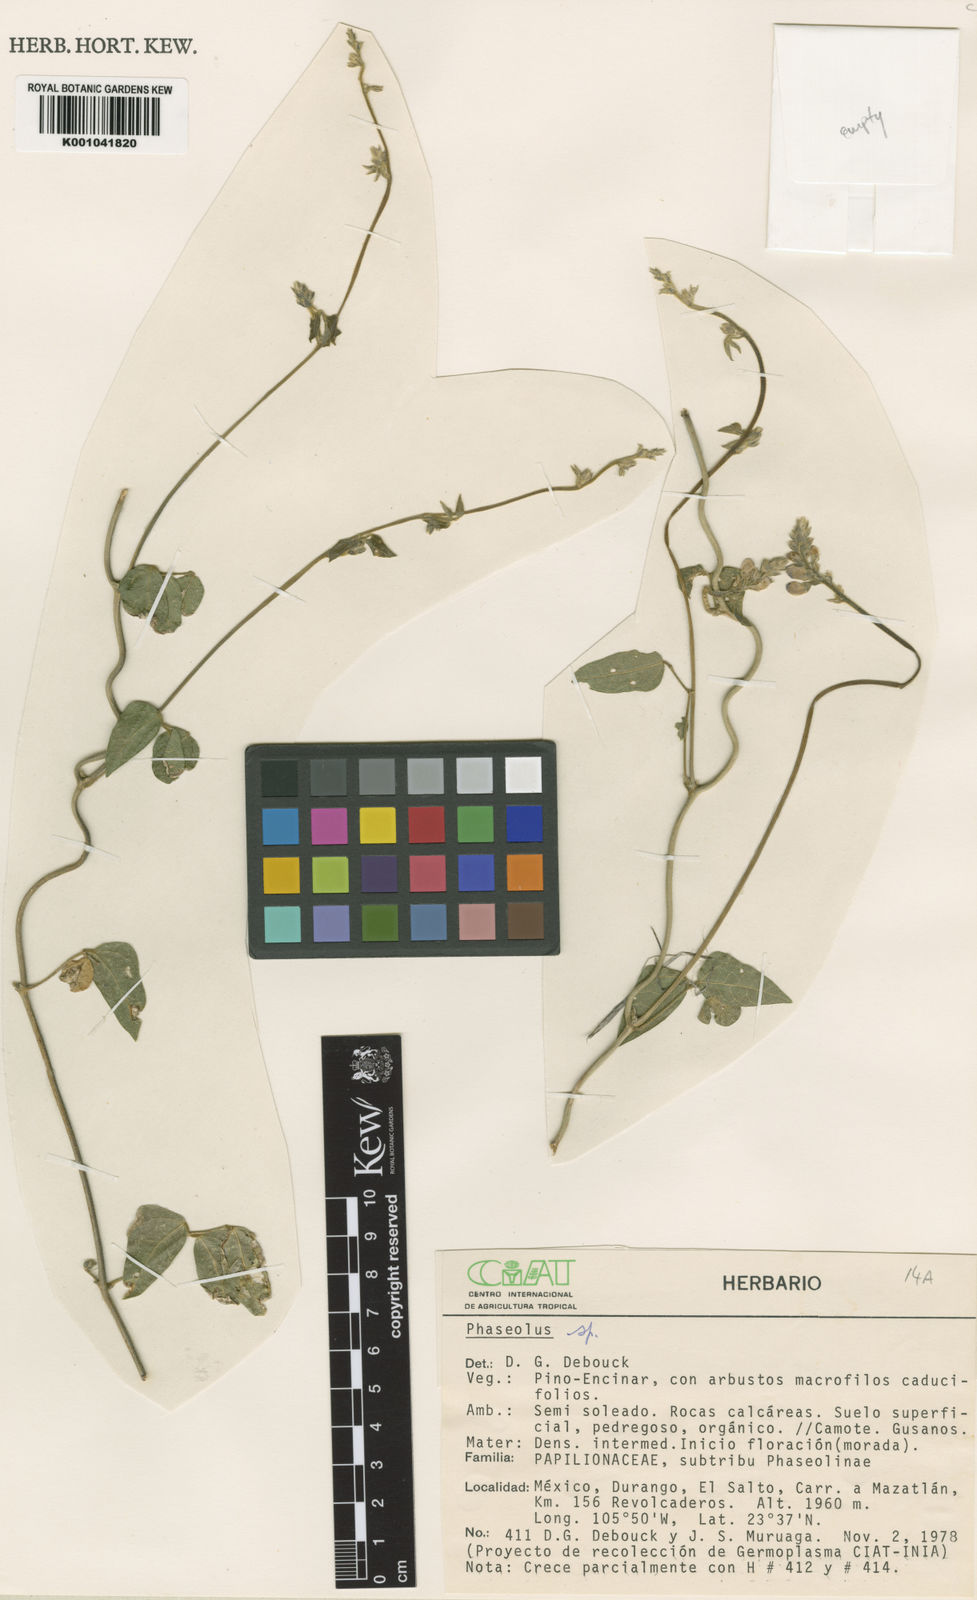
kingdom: Plantae
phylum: Tracheophyta
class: Magnoliopsida
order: Fabales
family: Fabaceae
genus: Phaseolus
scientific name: Phaseolus
